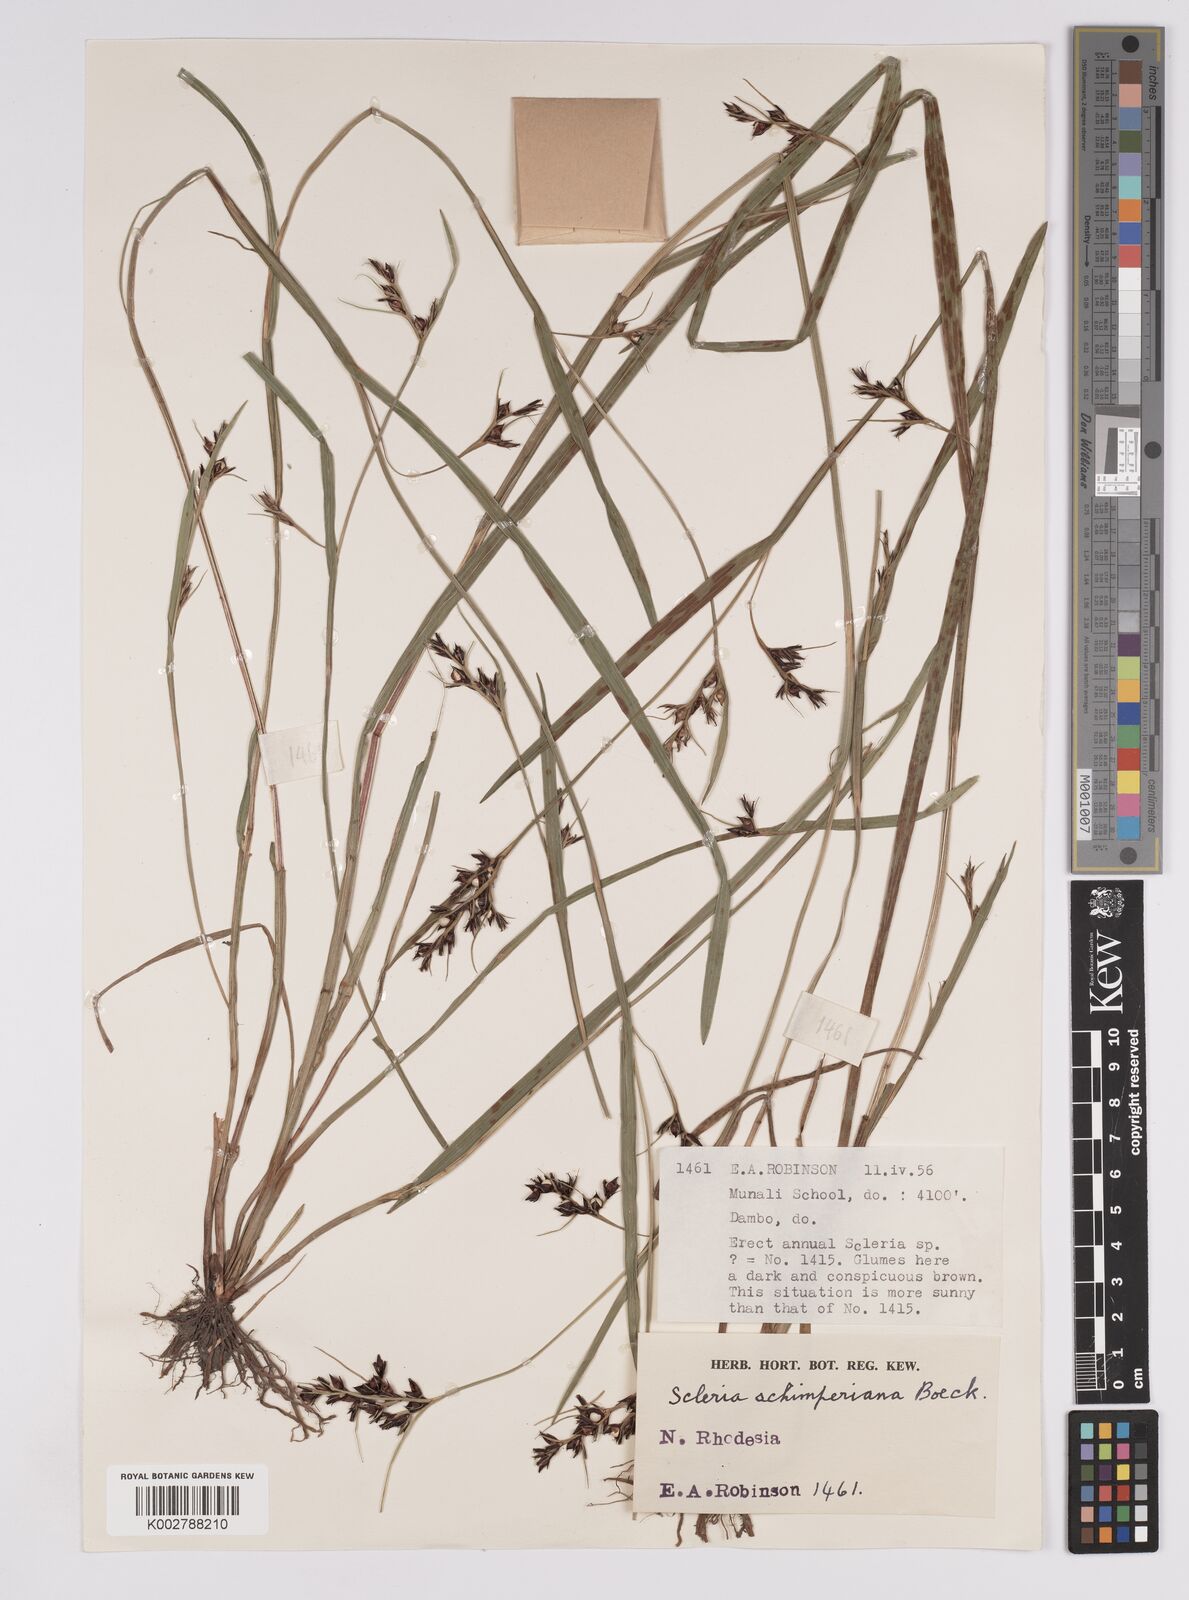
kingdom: Plantae
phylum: Tracheophyta
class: Liliopsida
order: Poales
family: Cyperaceae
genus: Scleria
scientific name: Scleria schimperiana
